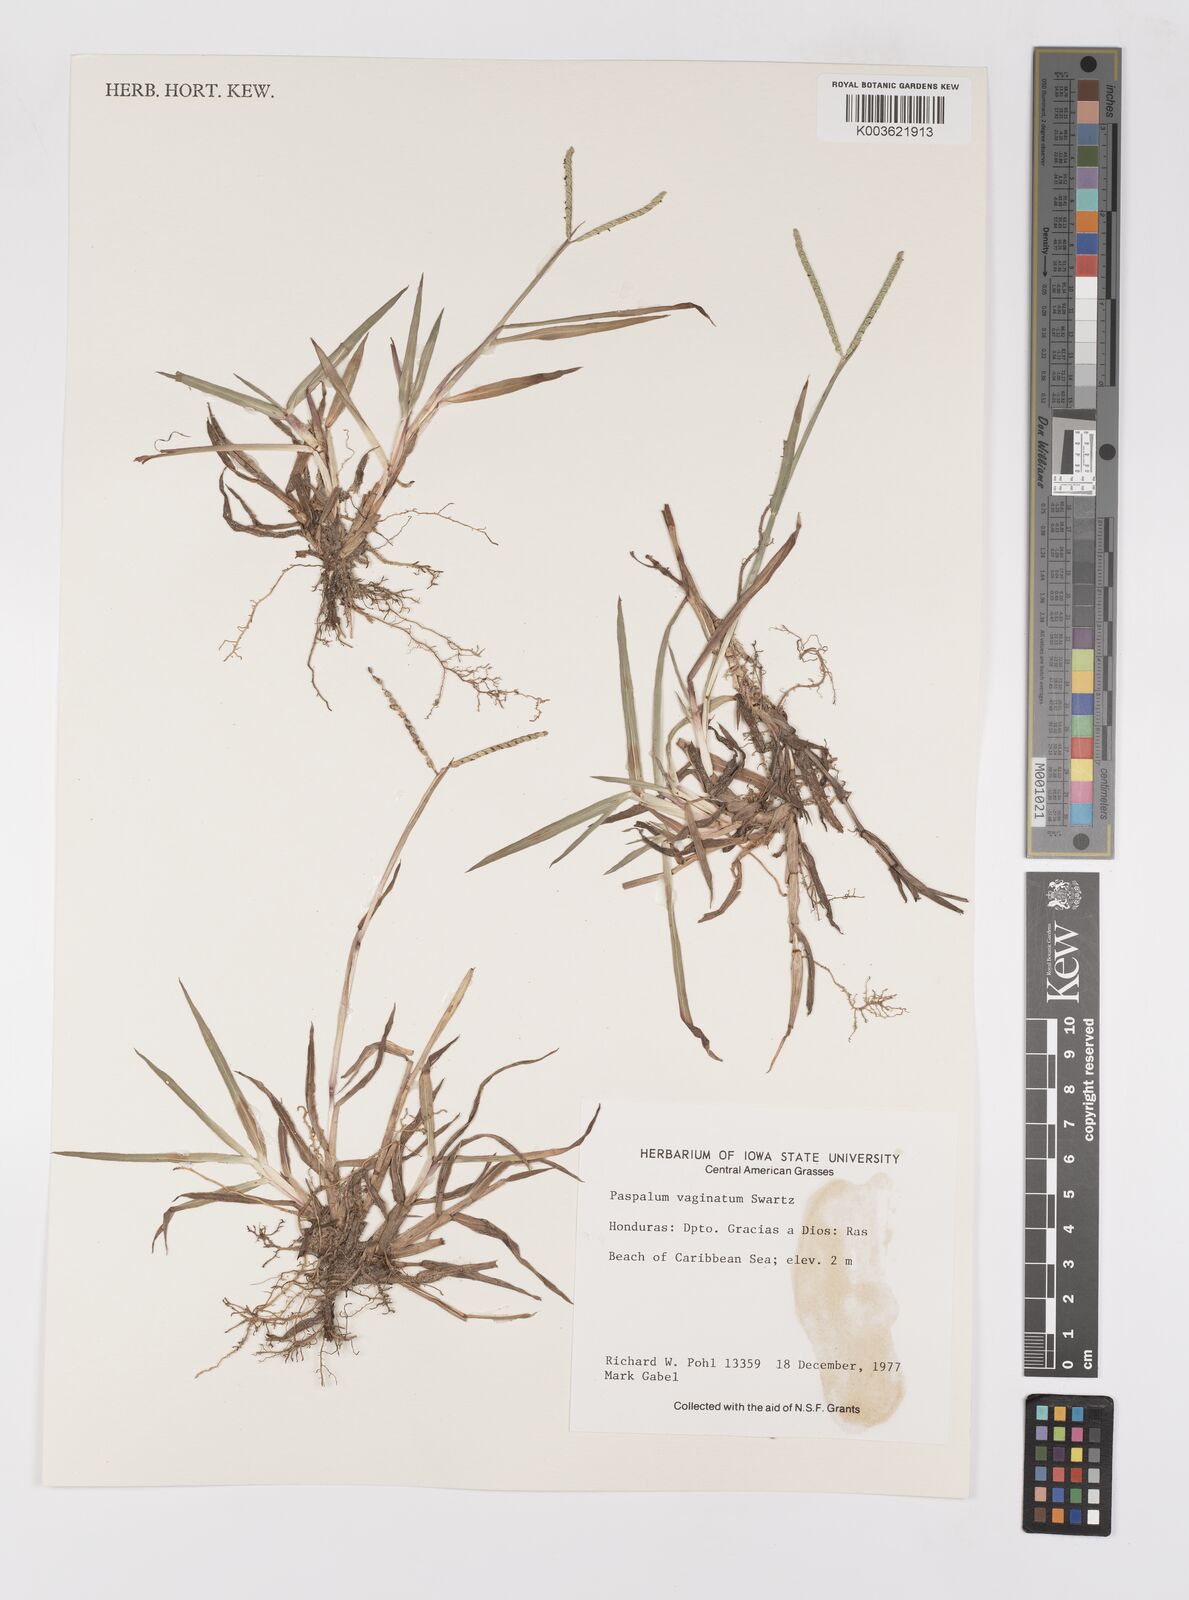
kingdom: Plantae
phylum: Tracheophyta
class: Liliopsida
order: Poales
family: Poaceae
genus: Paspalum
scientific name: Paspalum vaginatum
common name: Seashore paspalum
